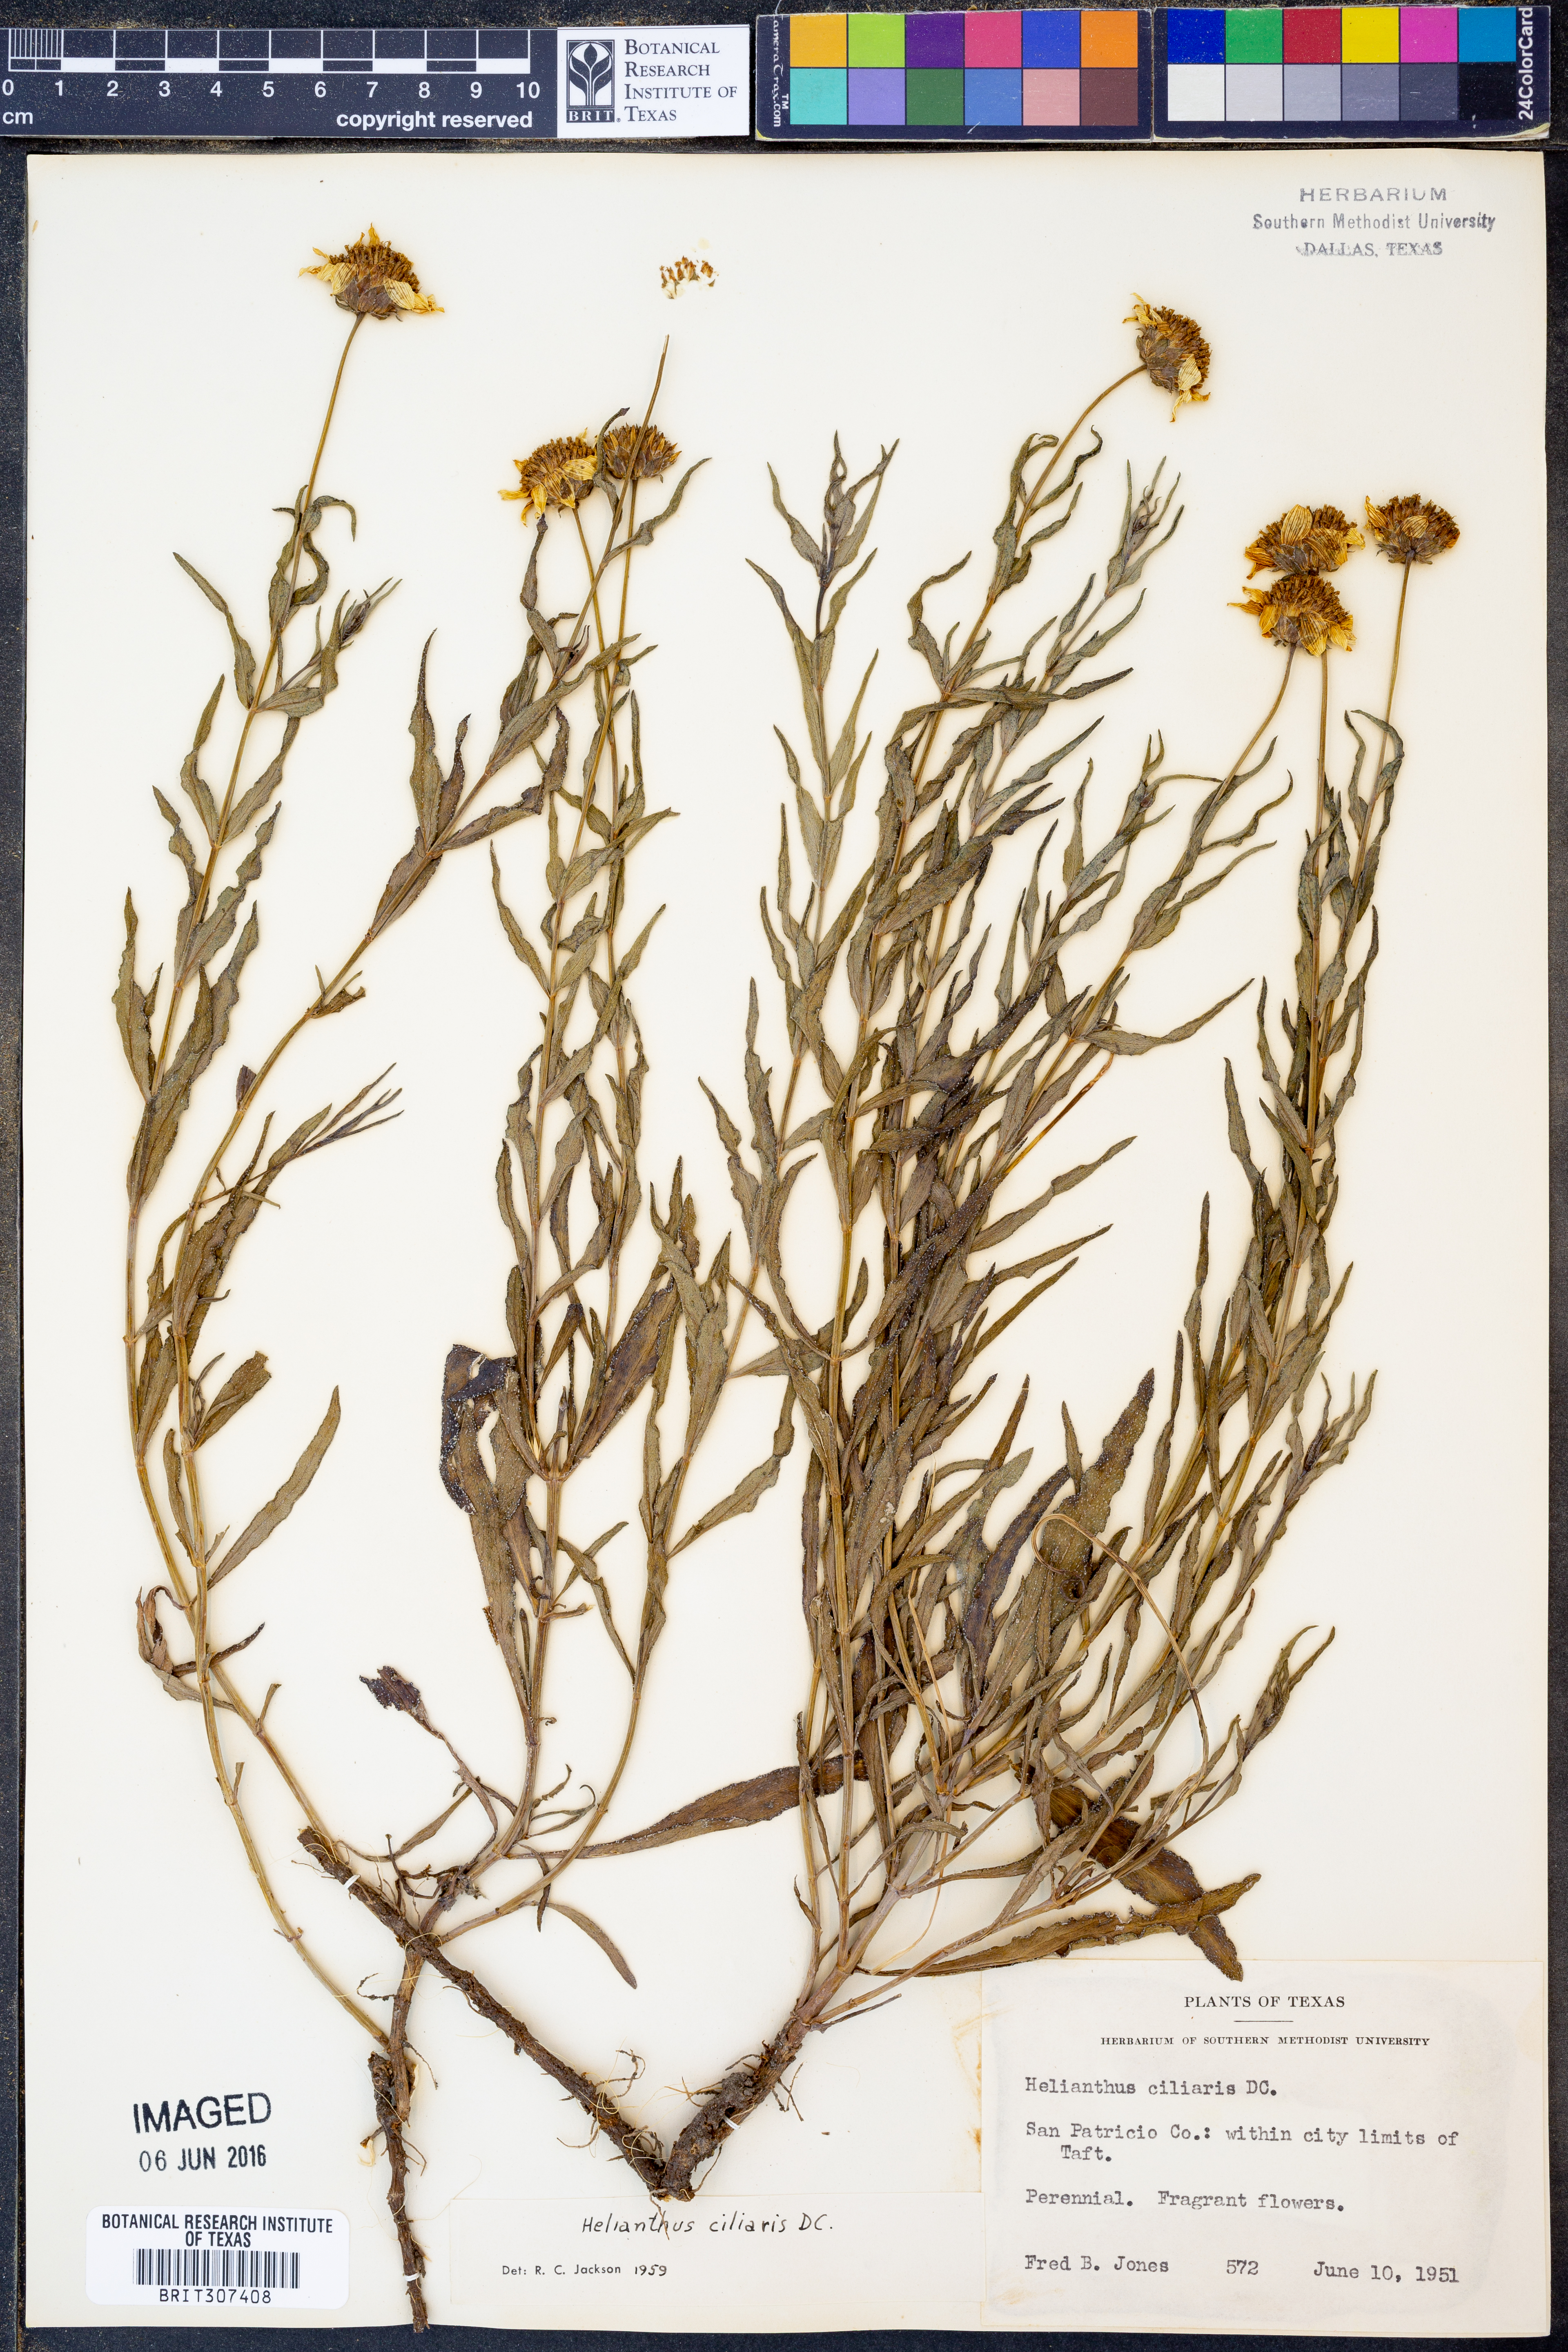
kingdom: Plantae
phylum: Tracheophyta
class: Magnoliopsida
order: Asterales
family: Asteraceae
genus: Helianthus
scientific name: Helianthus ciliaris
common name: Texas blueweed
